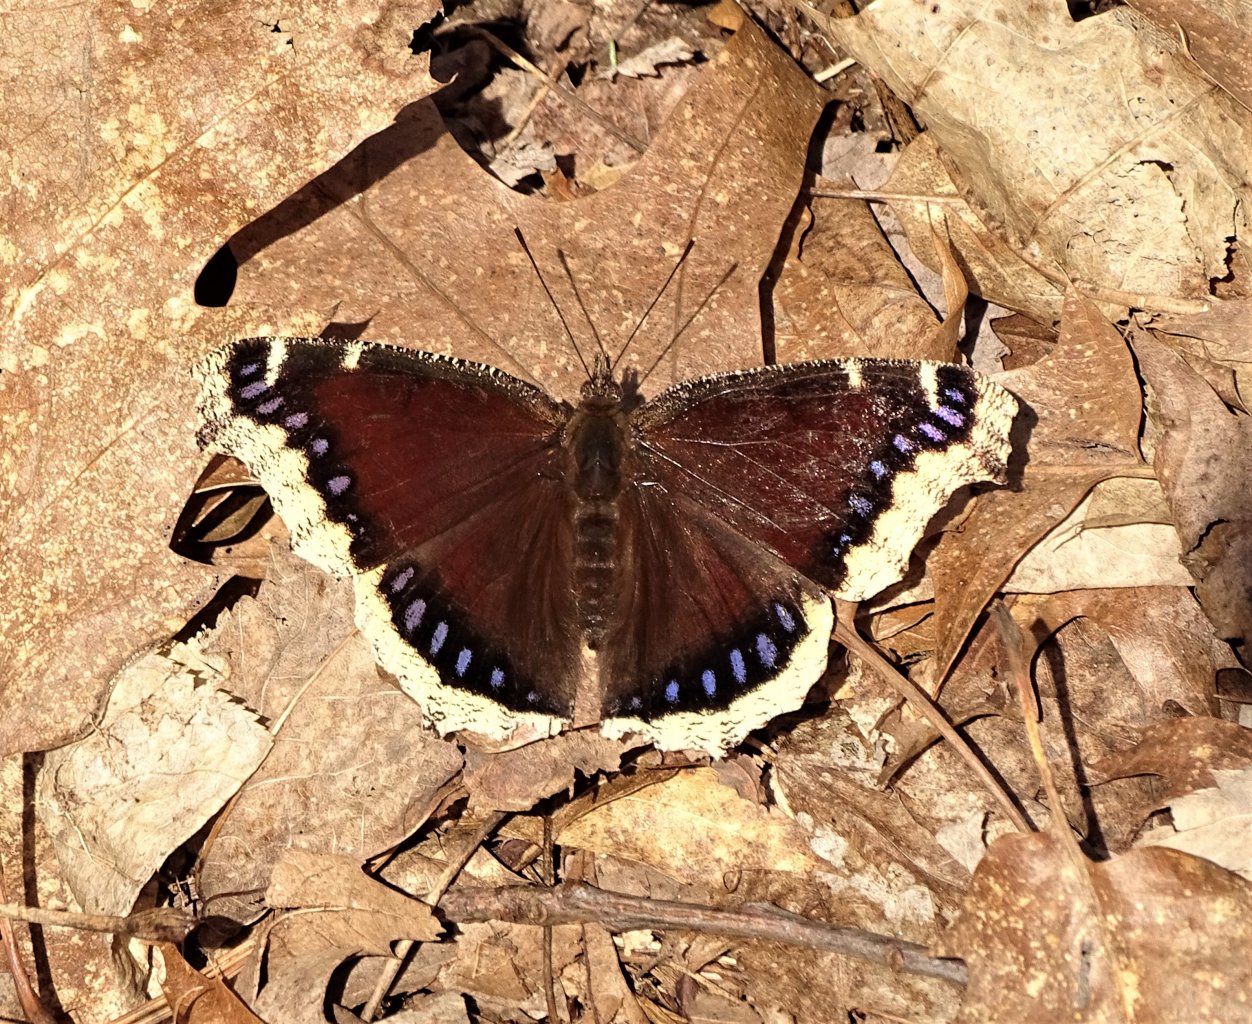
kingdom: Animalia
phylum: Arthropoda
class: Insecta
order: Lepidoptera
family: Nymphalidae
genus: Nymphalis
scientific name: Nymphalis antiopa
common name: Mourning Cloak
